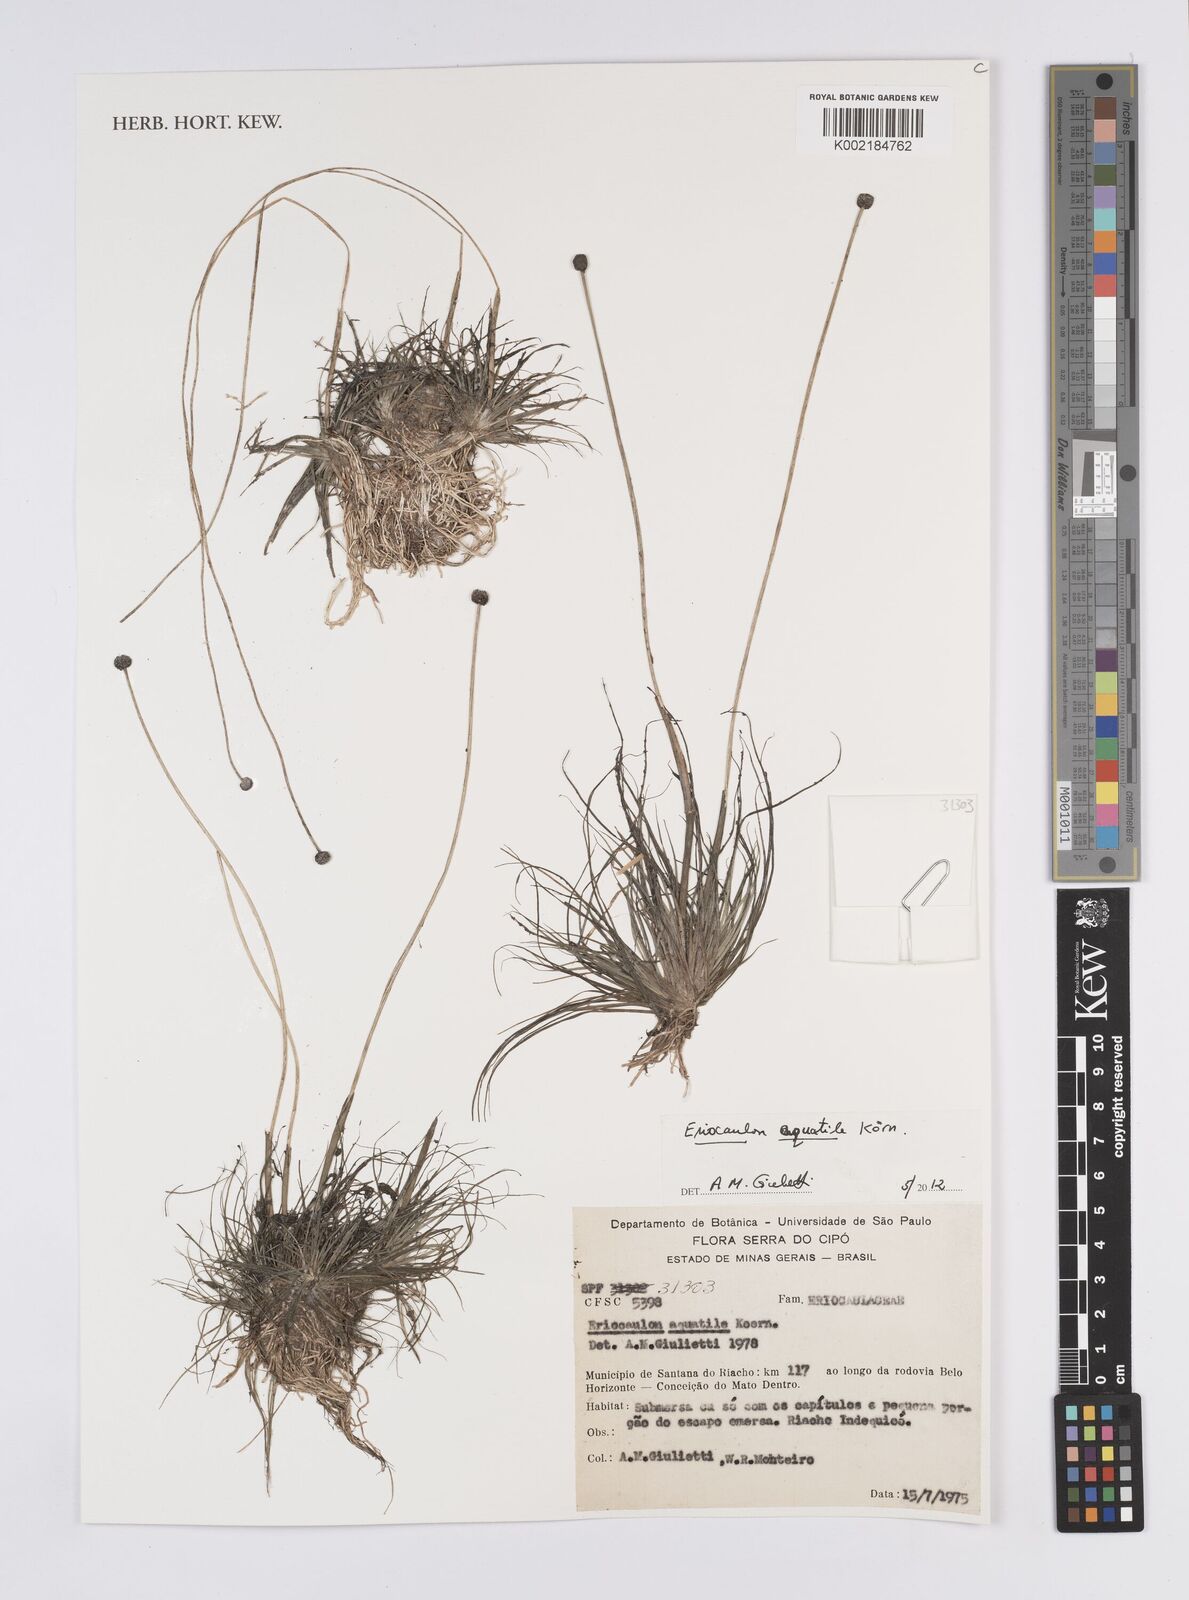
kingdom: Plantae
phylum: Tracheophyta
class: Liliopsida
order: Poales
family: Eriocaulaceae
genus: Eriocaulon
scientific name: Eriocaulon aquatile
